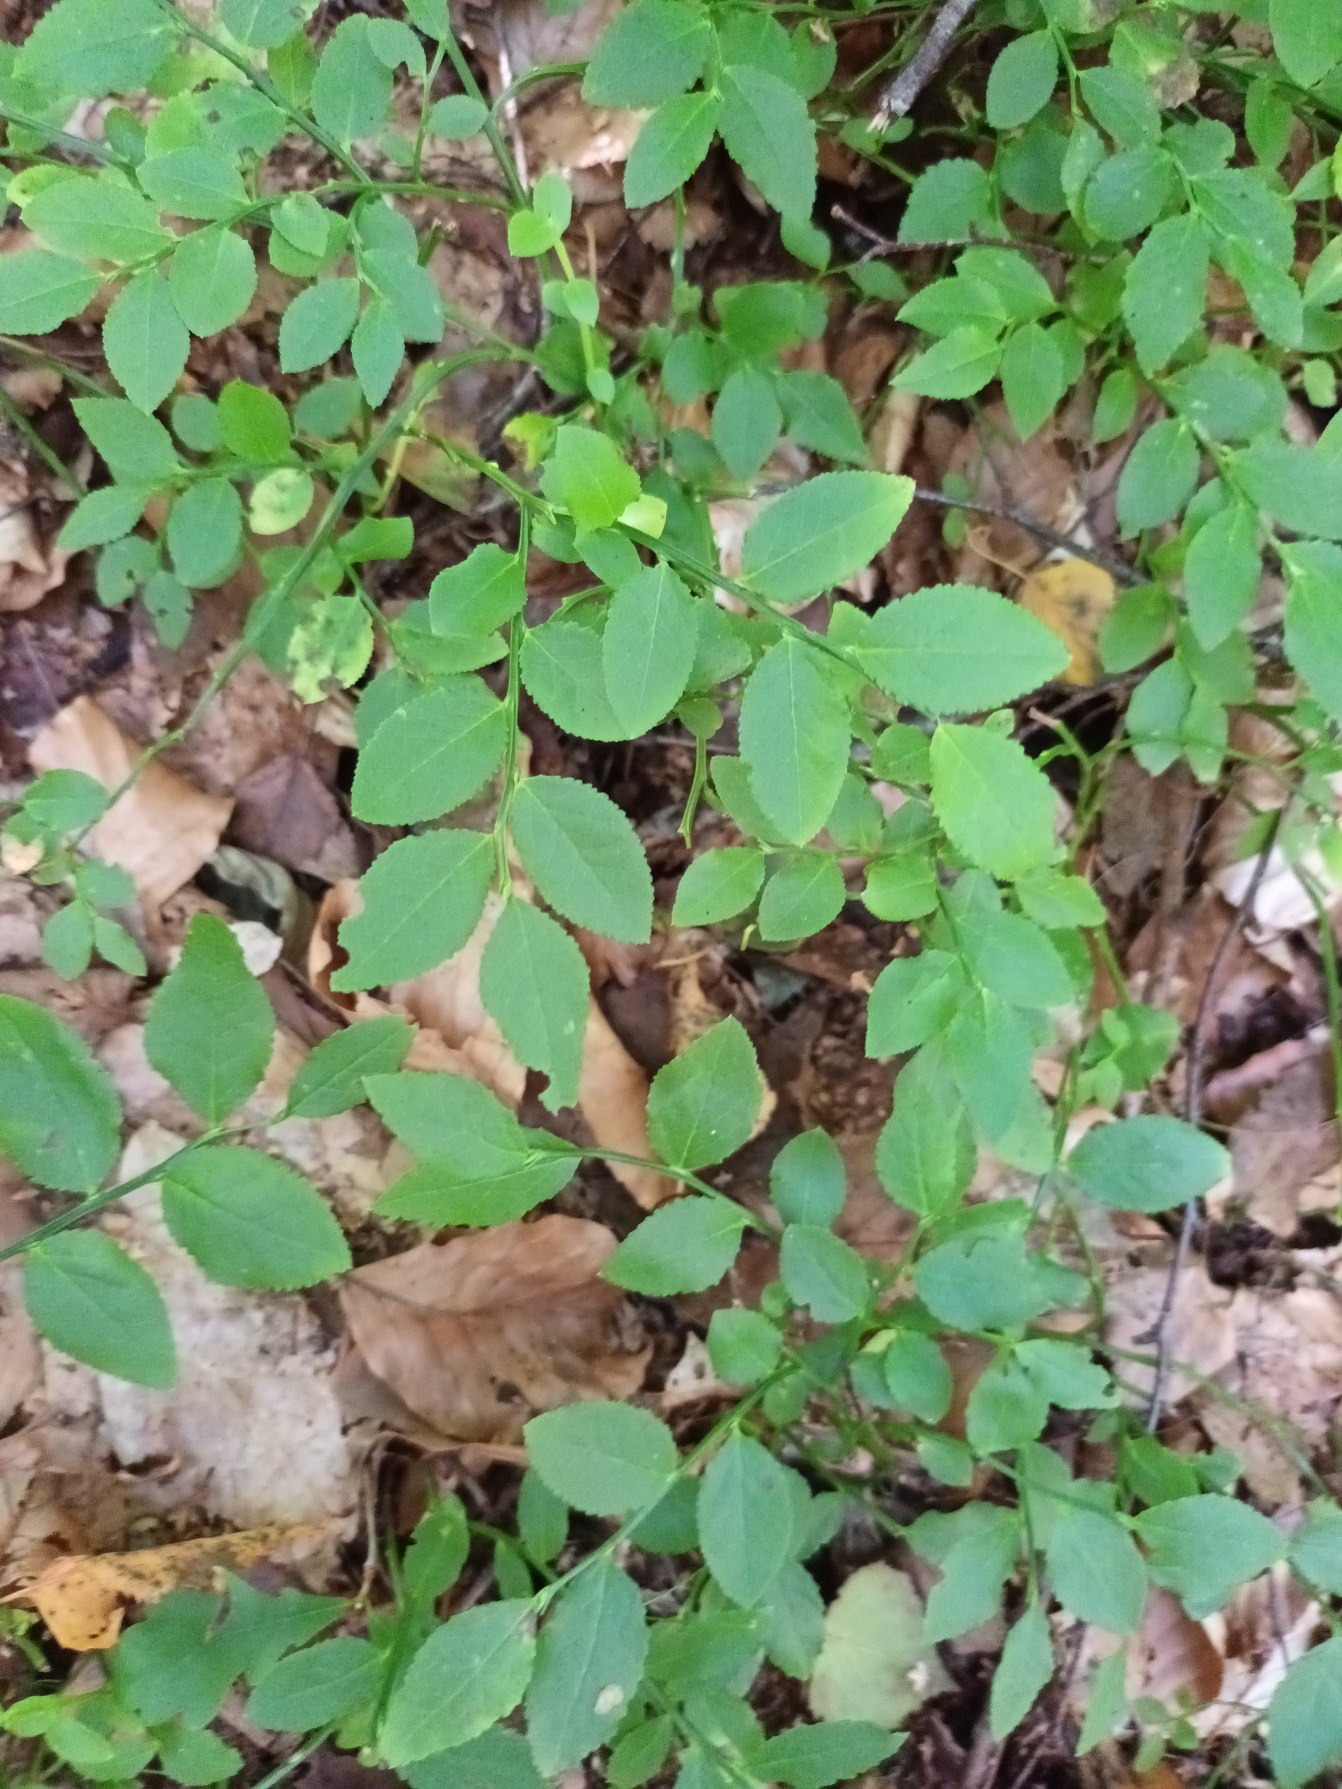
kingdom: Plantae
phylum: Tracheophyta
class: Magnoliopsida
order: Ericales
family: Ericaceae
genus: Vaccinium
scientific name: Vaccinium myrtillus
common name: Blåbær
